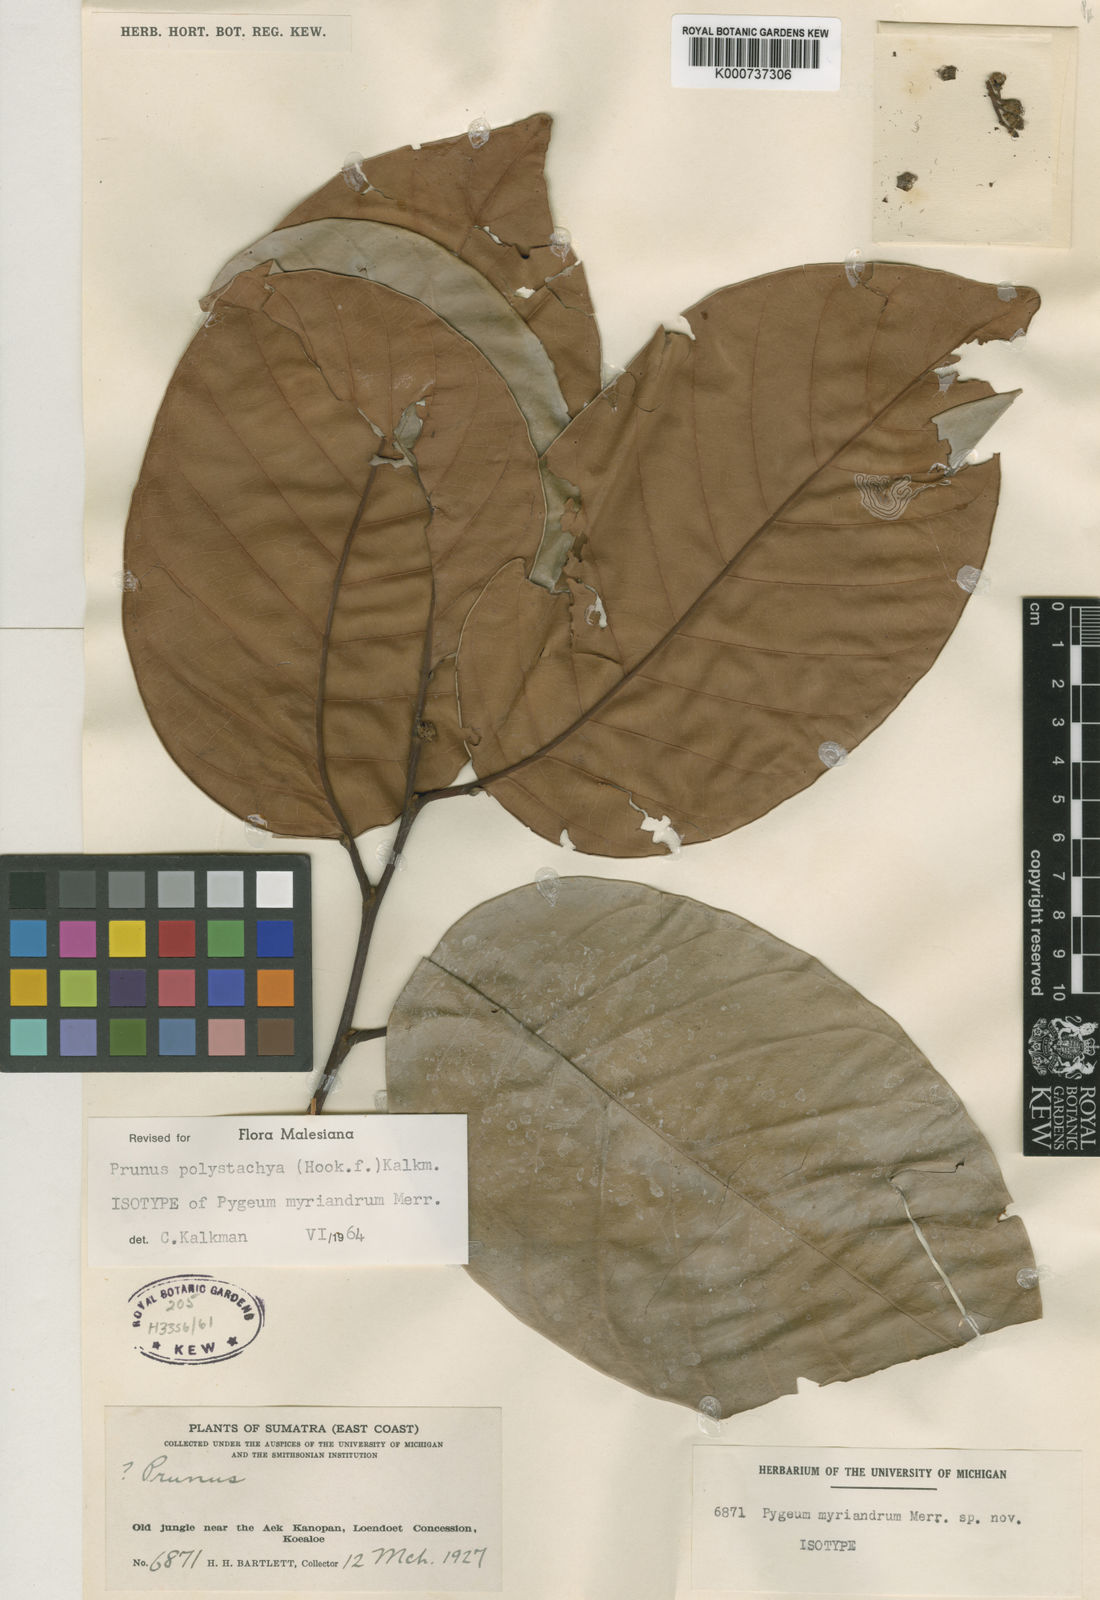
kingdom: Plantae
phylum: Tracheophyta
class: Magnoliopsida
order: Rosales
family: Rosaceae
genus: Prunus
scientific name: Prunus polystachya
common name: Bat laurel
